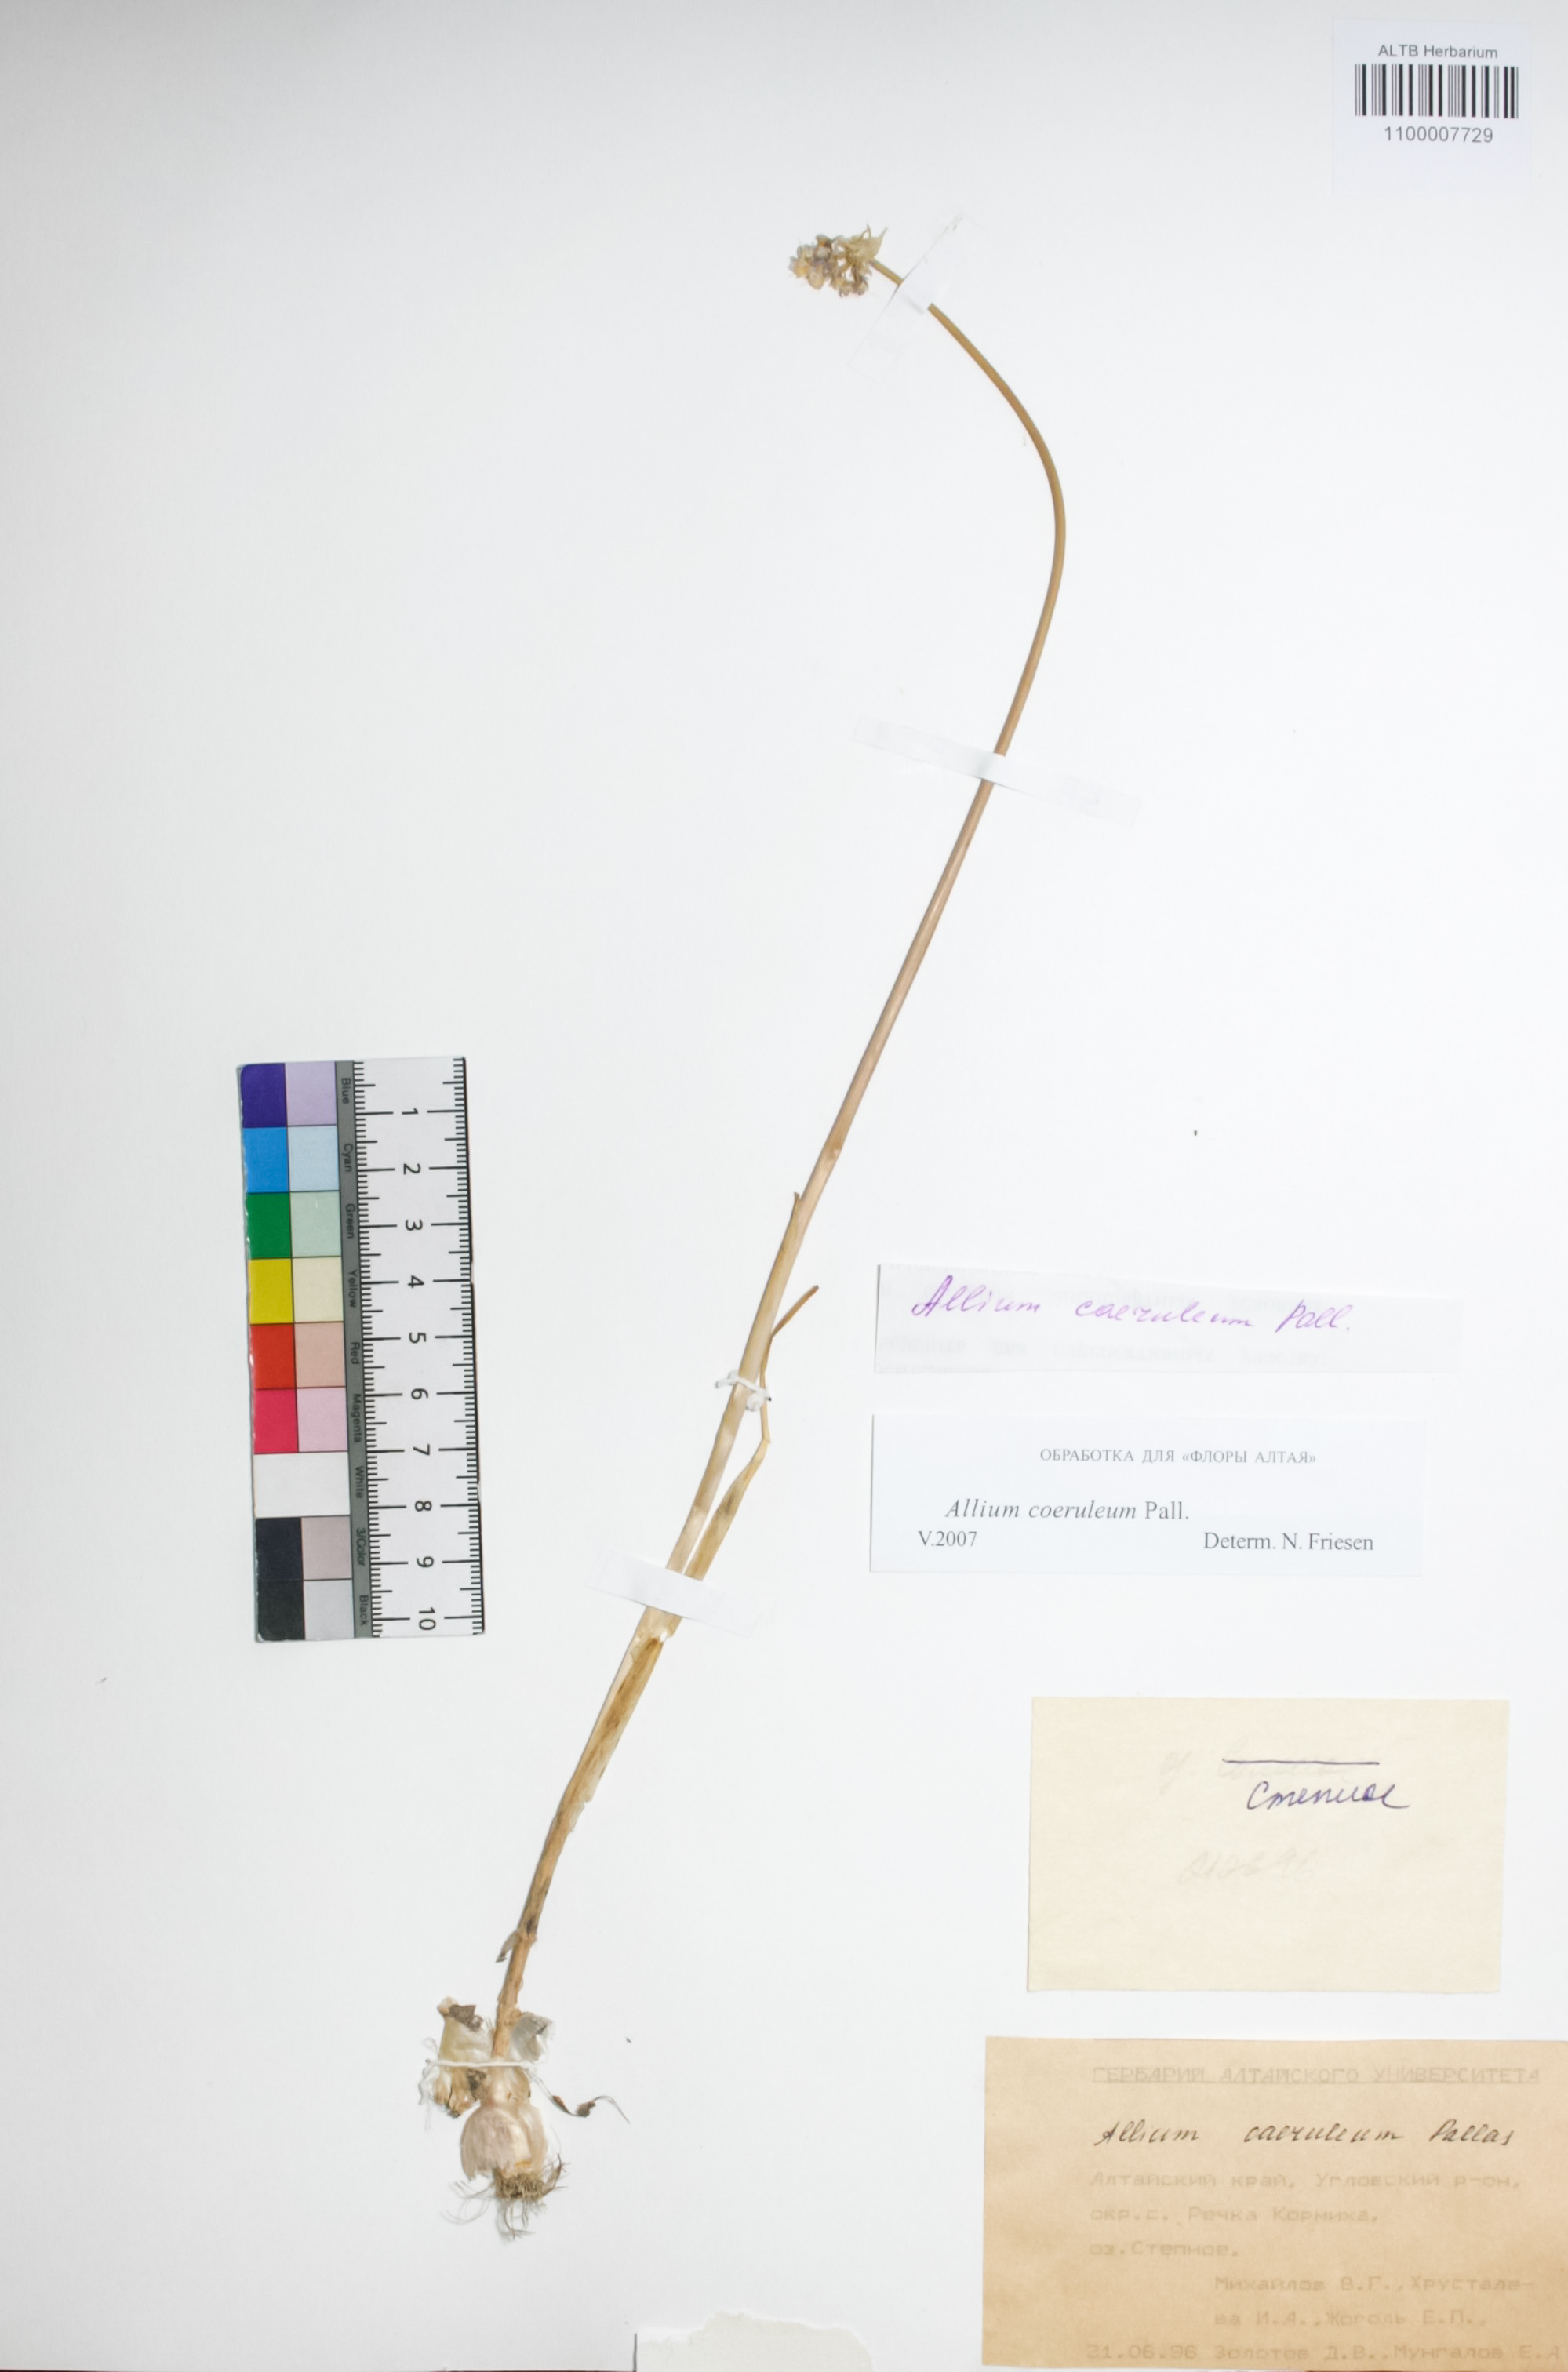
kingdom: Plantae
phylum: Tracheophyta
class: Liliopsida
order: Asparagales
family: Amaryllidaceae
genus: Allium
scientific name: Allium caeruleum
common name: Blue-of-the-heavens
